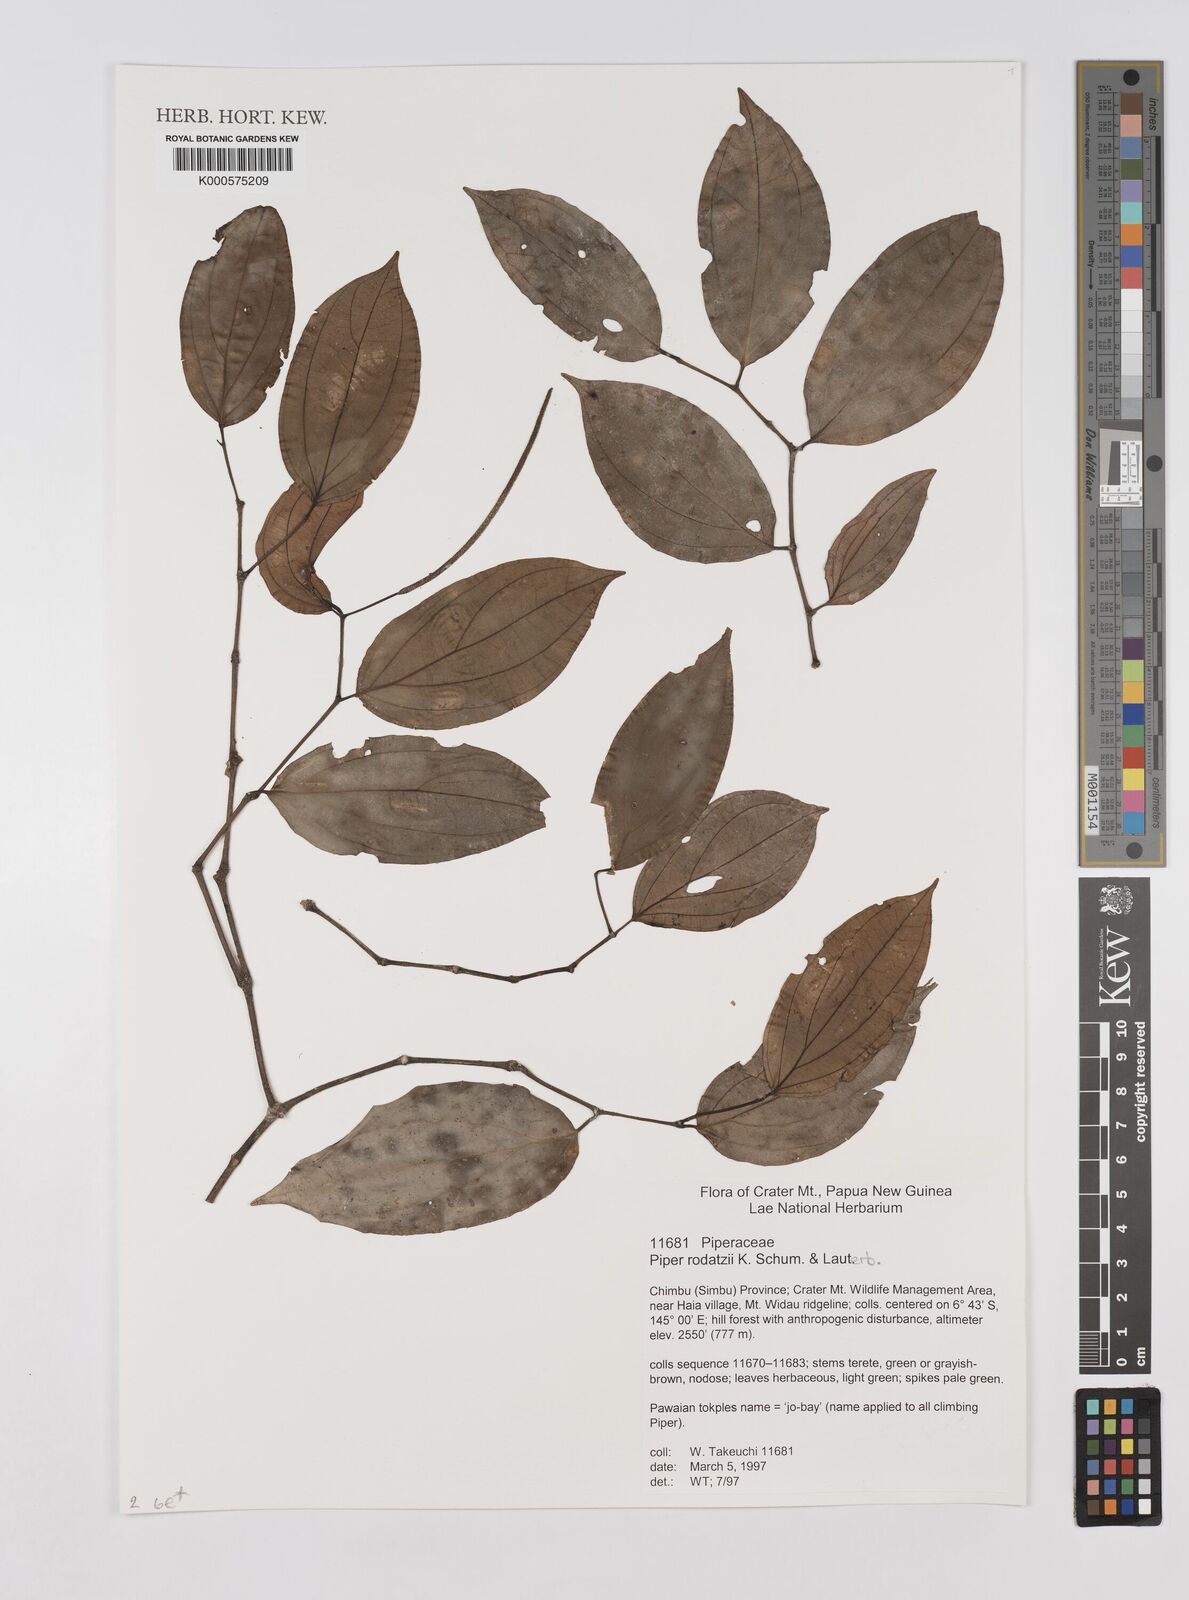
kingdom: Plantae
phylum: Tracheophyta
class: Magnoliopsida
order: Piperales
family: Piperaceae
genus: Piper
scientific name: Piper macropiper
